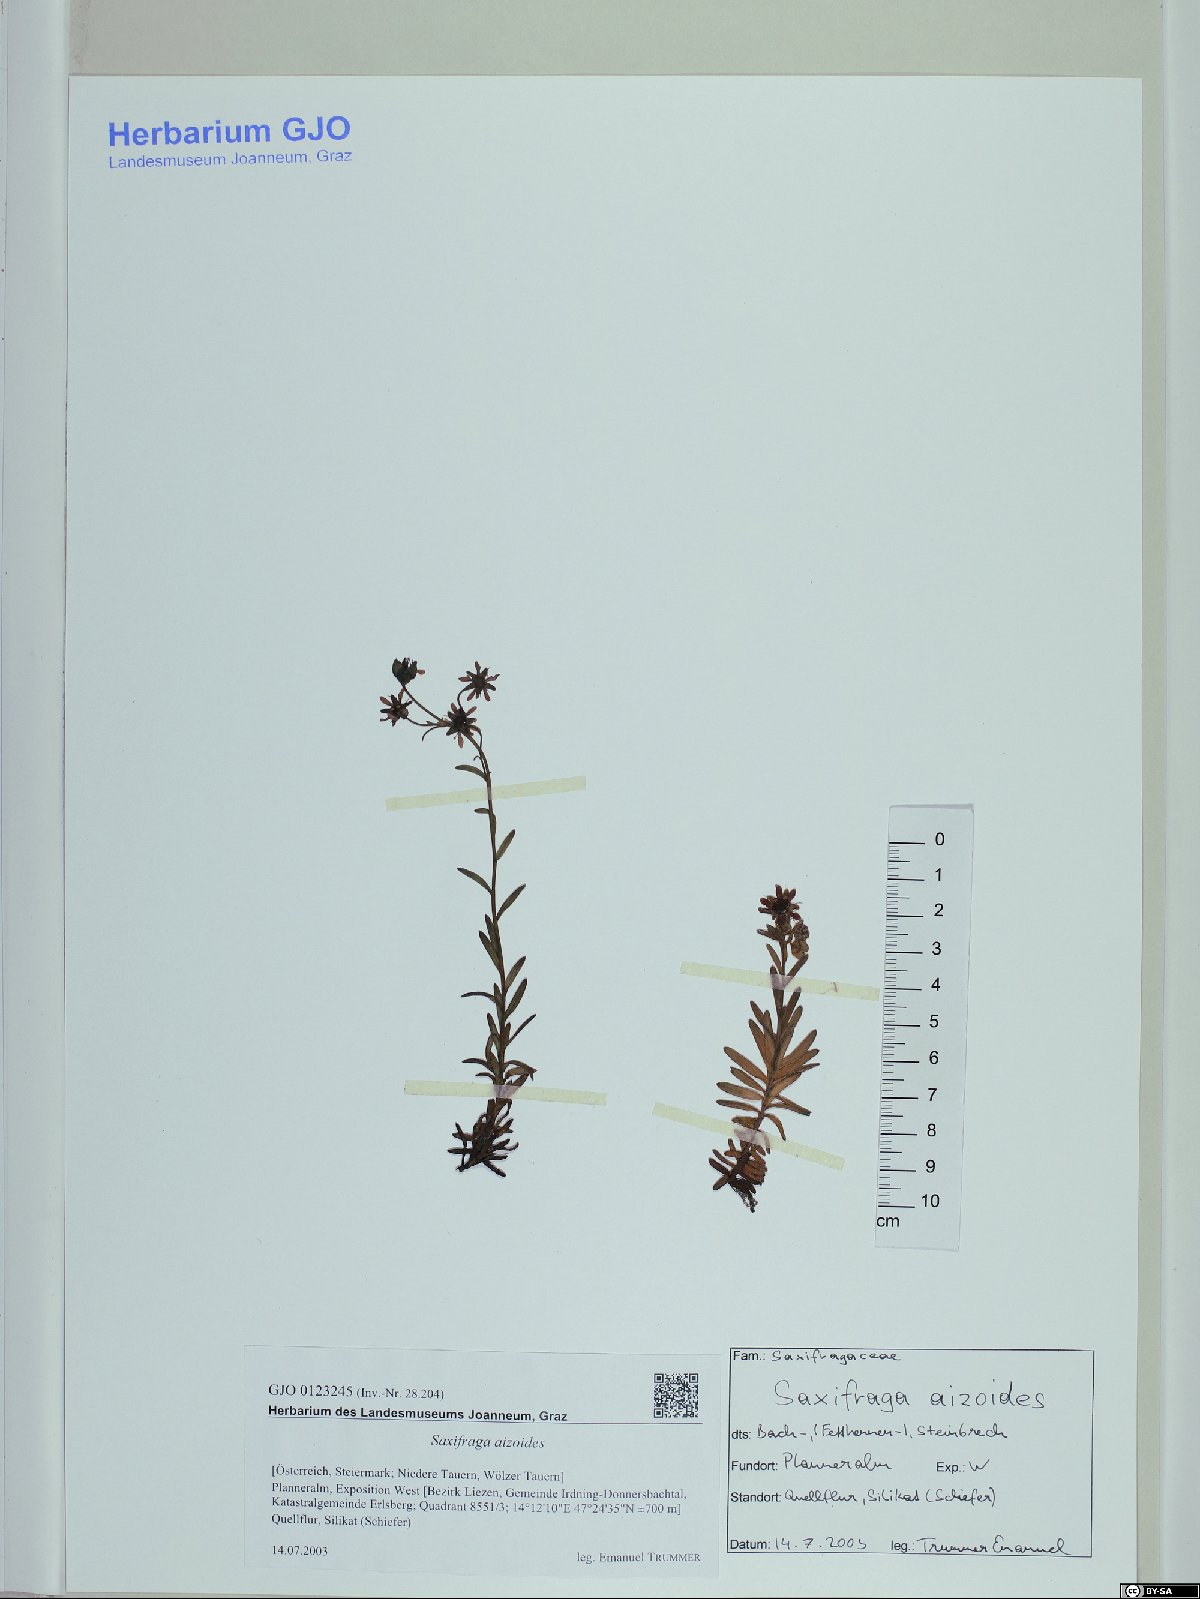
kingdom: Plantae
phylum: Tracheophyta
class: Magnoliopsida
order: Saxifragales
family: Saxifragaceae
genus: Saxifraga
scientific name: Saxifraga aizoides
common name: Yellow mountain saxifrage
